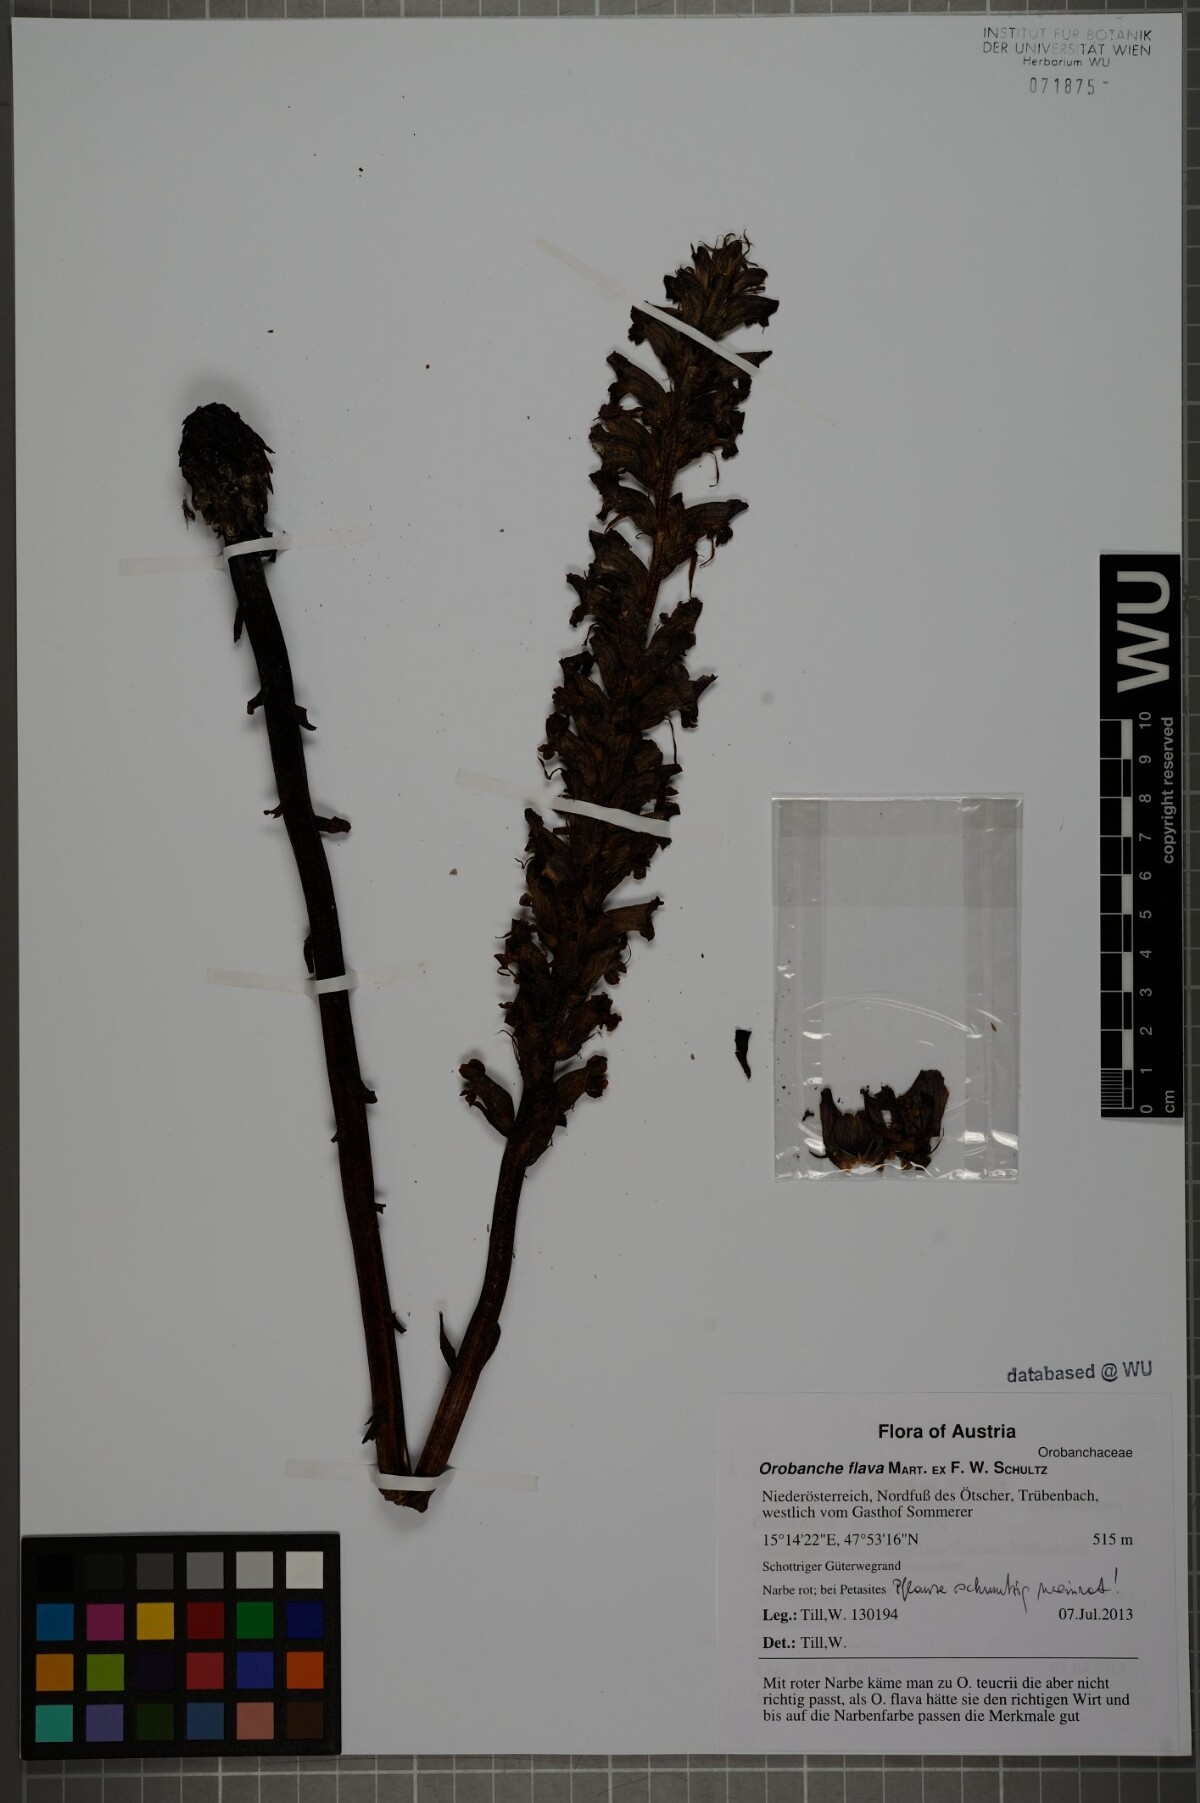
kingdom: Plantae
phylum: Tracheophyta
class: Magnoliopsida
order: Lamiales
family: Orobanchaceae
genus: Orobanche
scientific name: Orobanche flava
